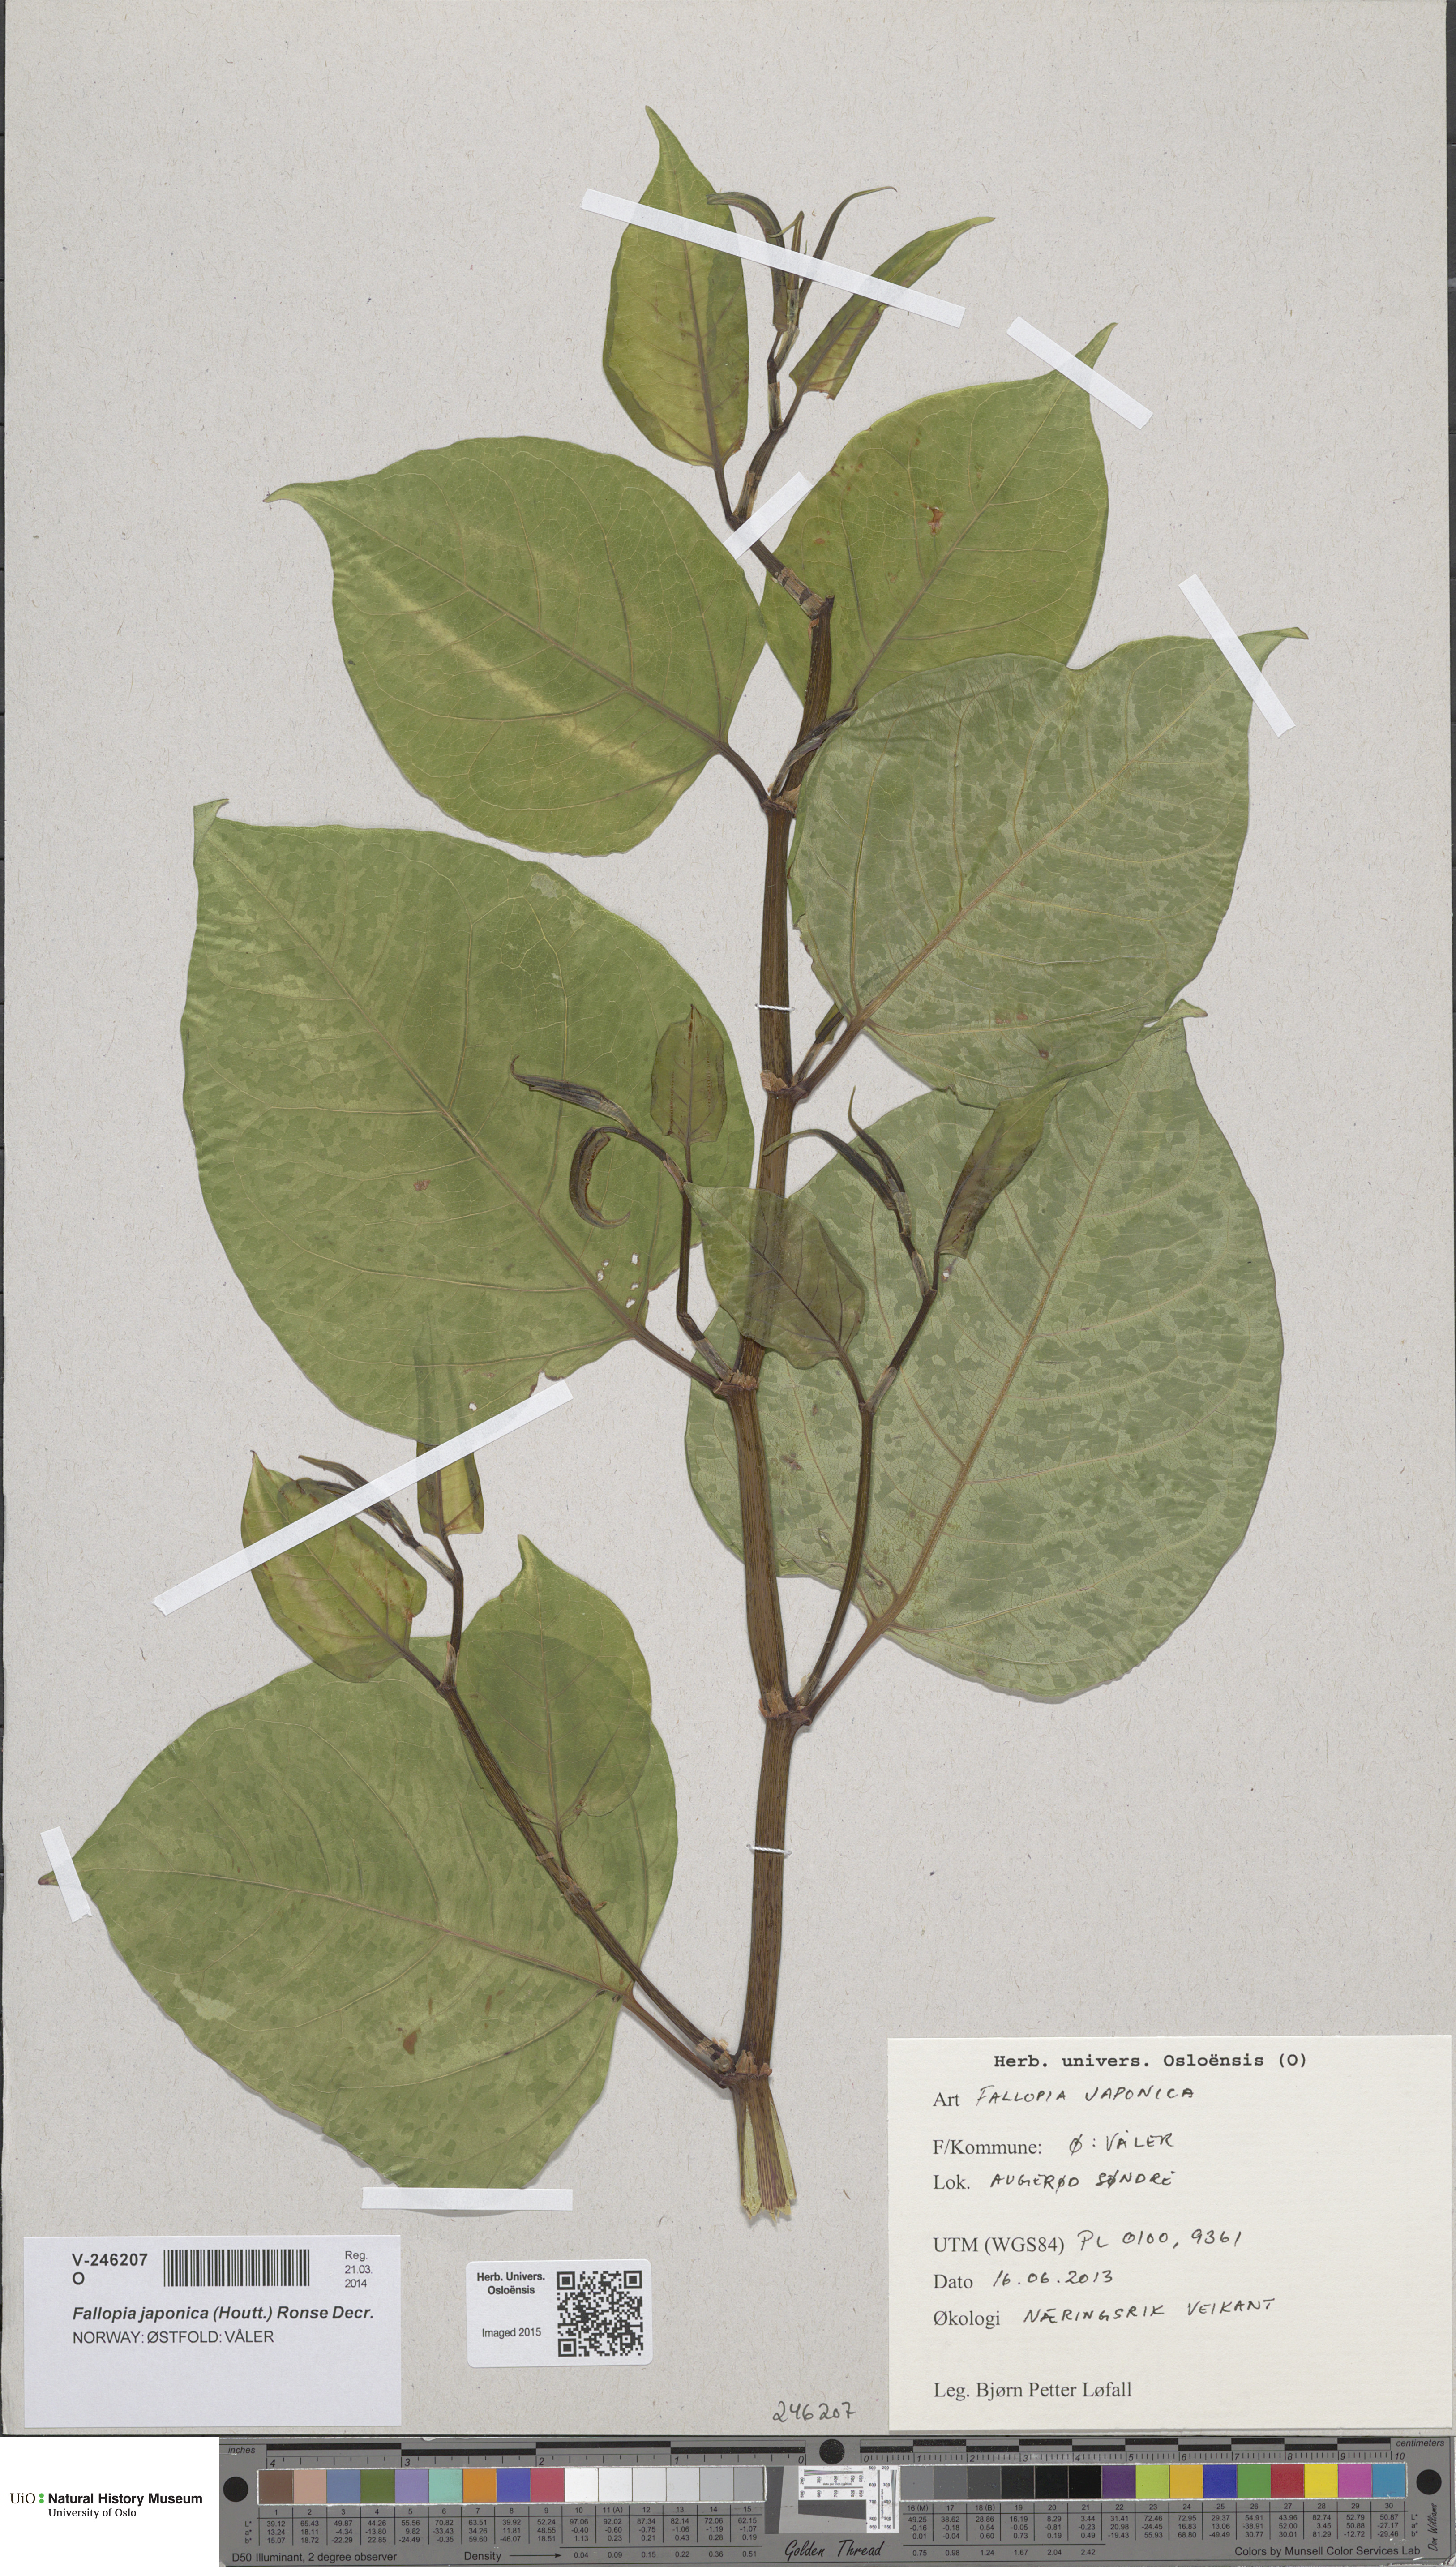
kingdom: Plantae
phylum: Tracheophyta
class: Magnoliopsida
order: Caryophyllales
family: Polygonaceae
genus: Reynoutria
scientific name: Reynoutria bohemica
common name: Bohemian knotweed
